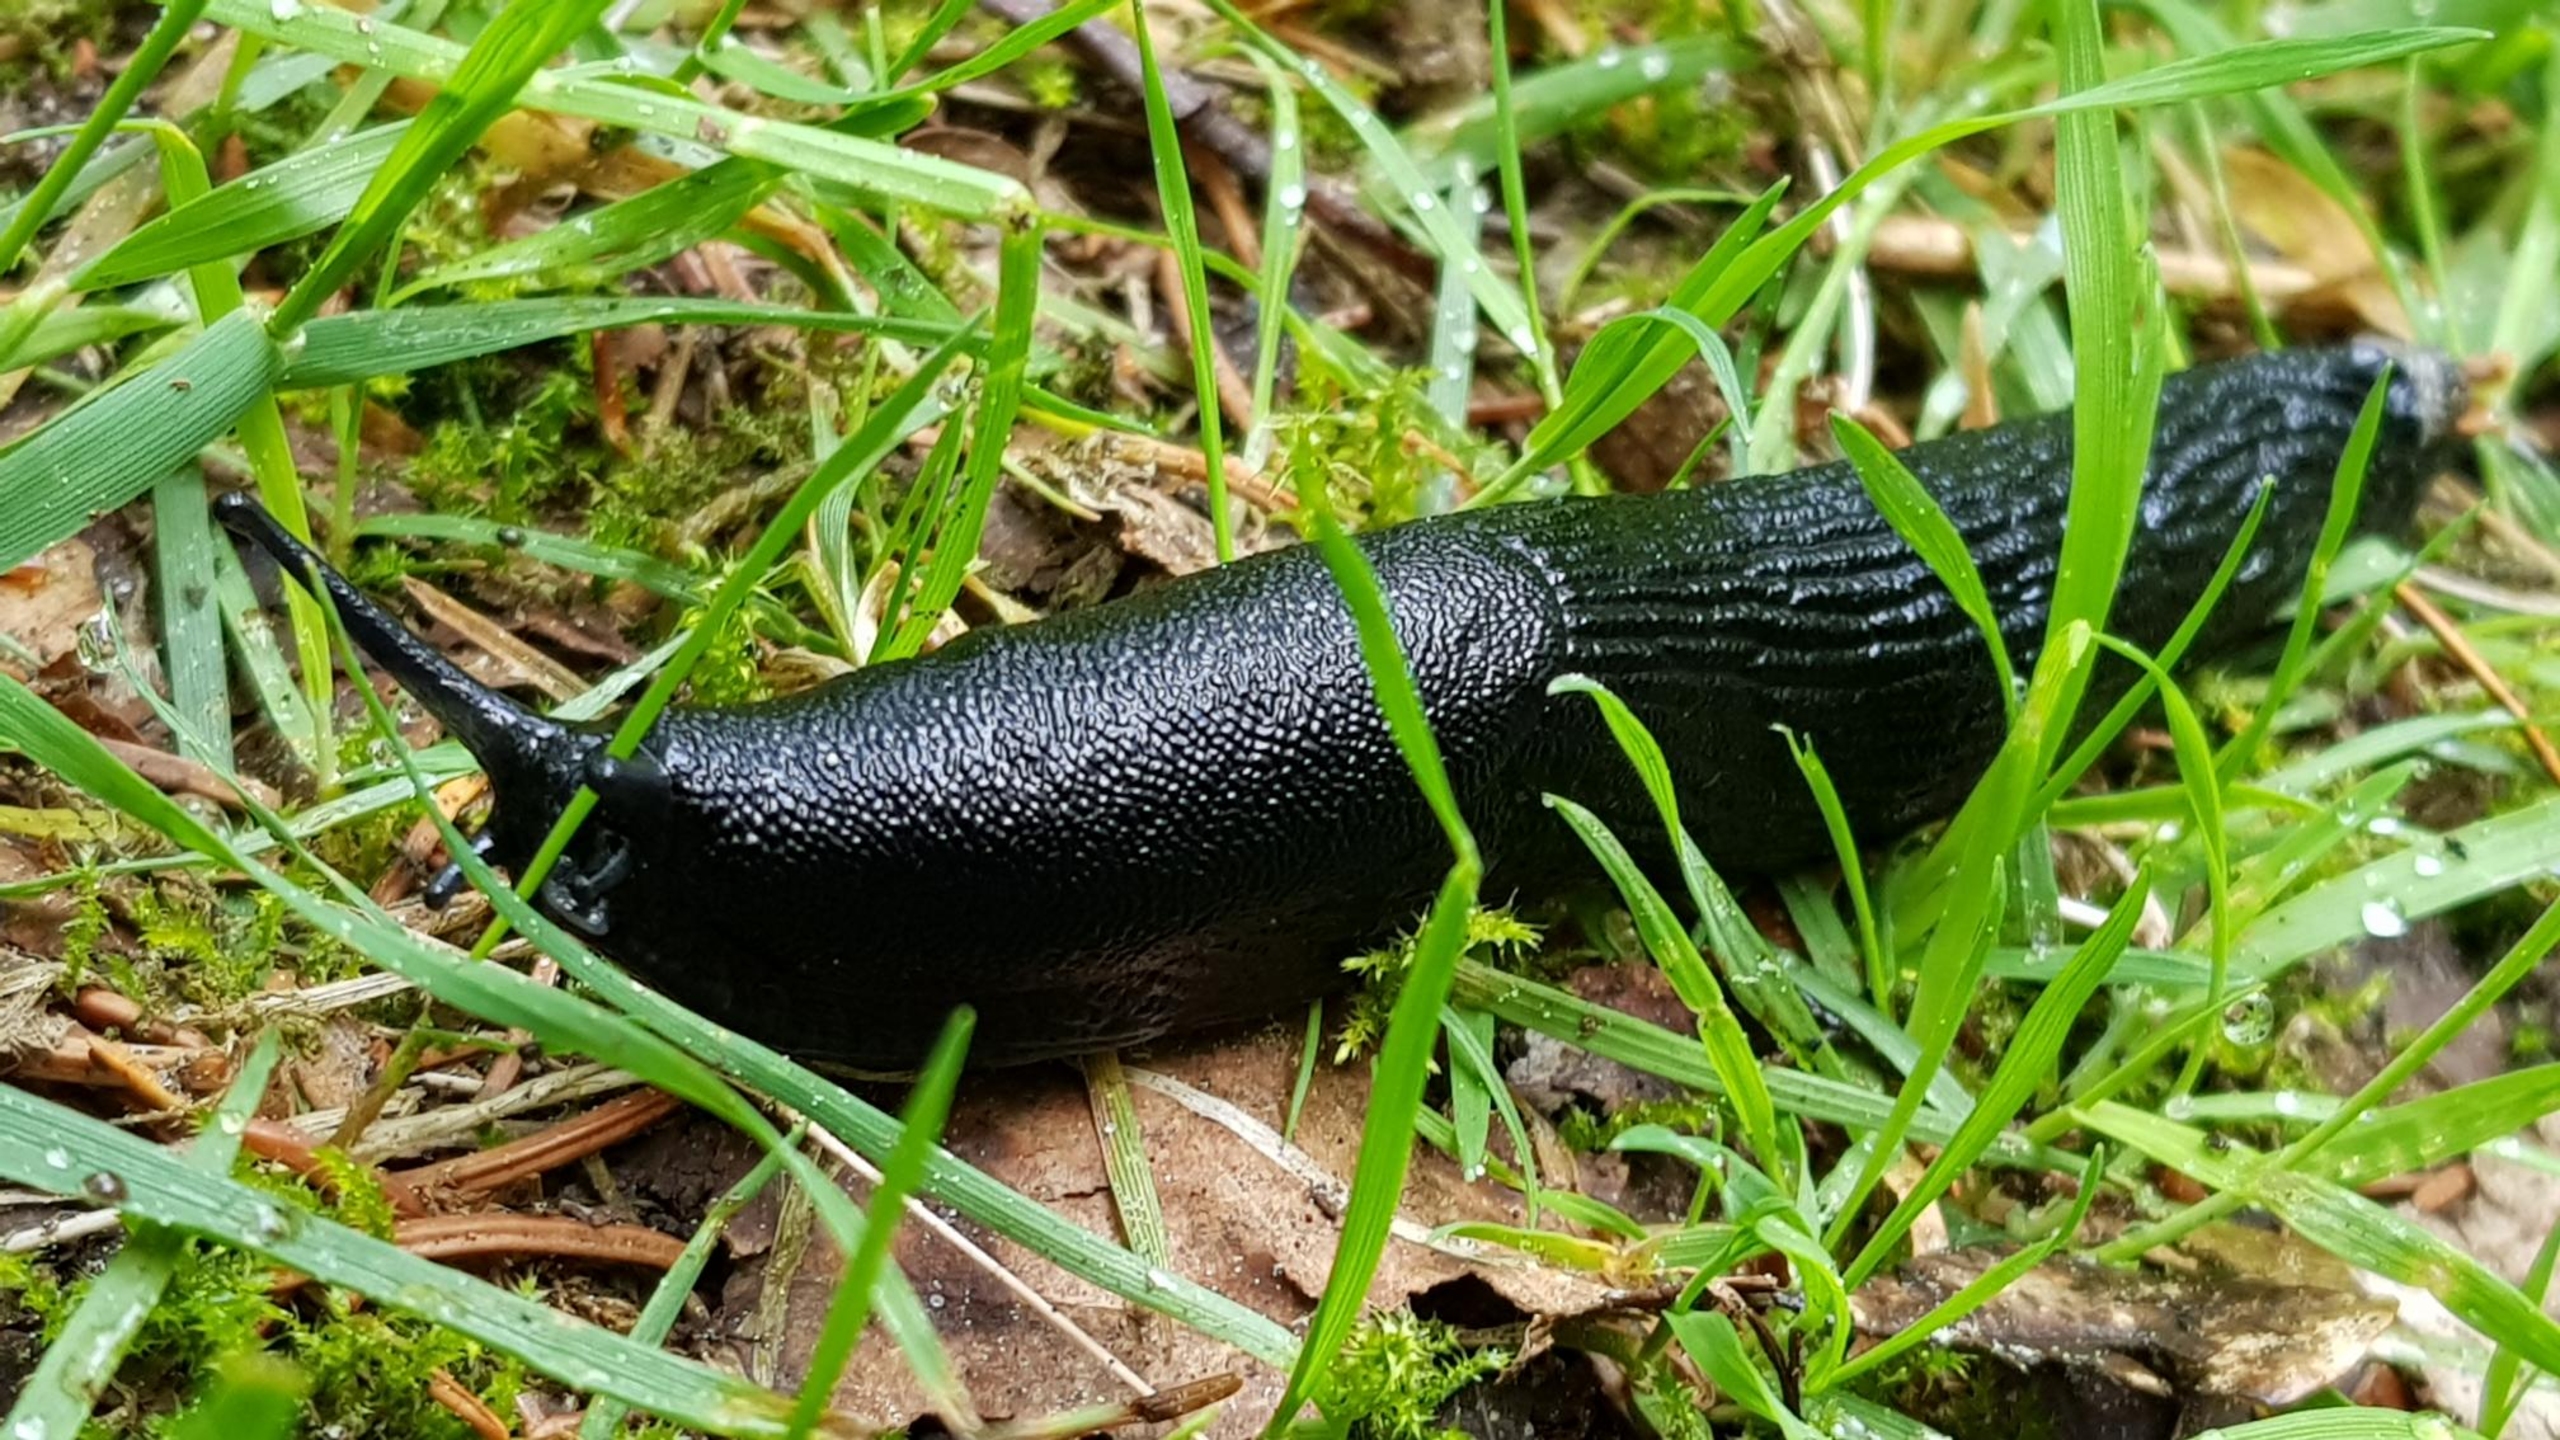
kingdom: Animalia
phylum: Mollusca
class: Gastropoda
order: Stylommatophora
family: Arionidae
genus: Arion
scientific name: Arion ater
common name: Sort skovsnegl
